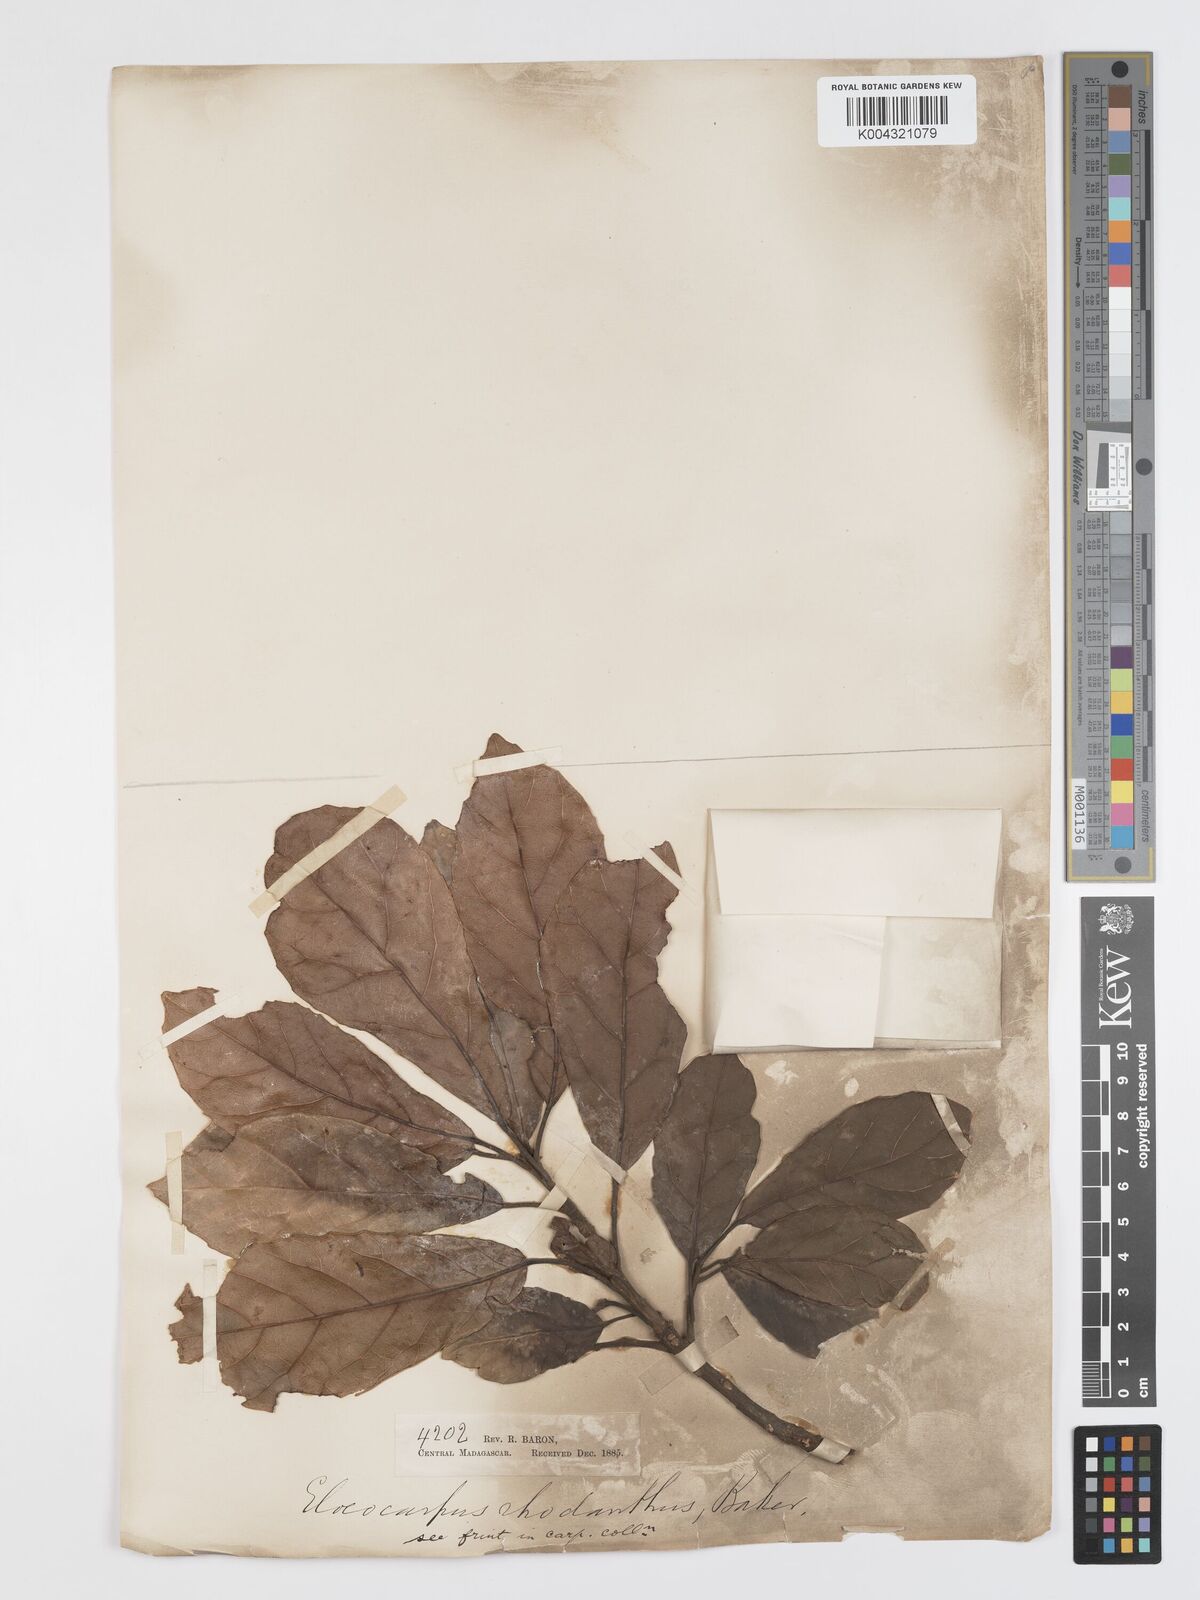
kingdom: Plantae
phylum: Tracheophyta
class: Magnoliopsida
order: Oxalidales
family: Elaeocarpaceae
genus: Sloanea
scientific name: Sloanea rhodantha
